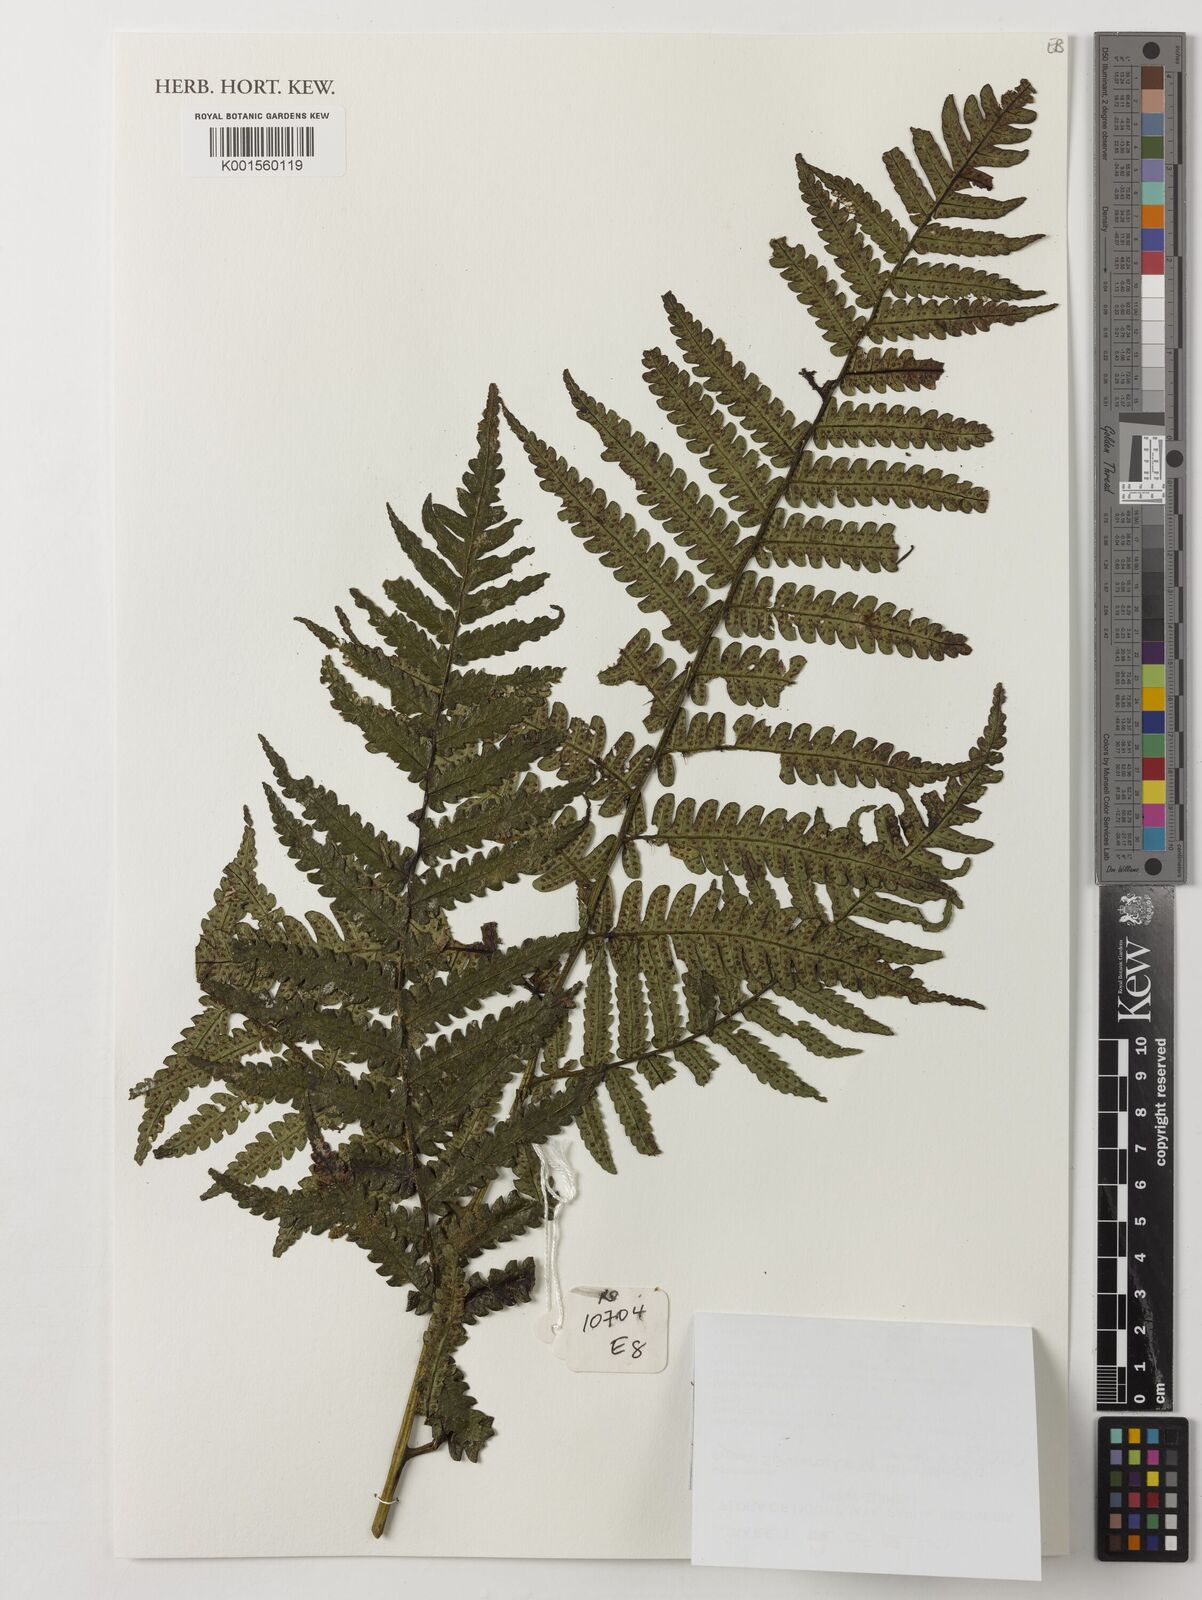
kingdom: Plantae
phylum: Tracheophyta
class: Polypodiopsida
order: Cyatheales
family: Cyatheaceae
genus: Sphaeropteris
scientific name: Sphaeropteris rosenstockii
